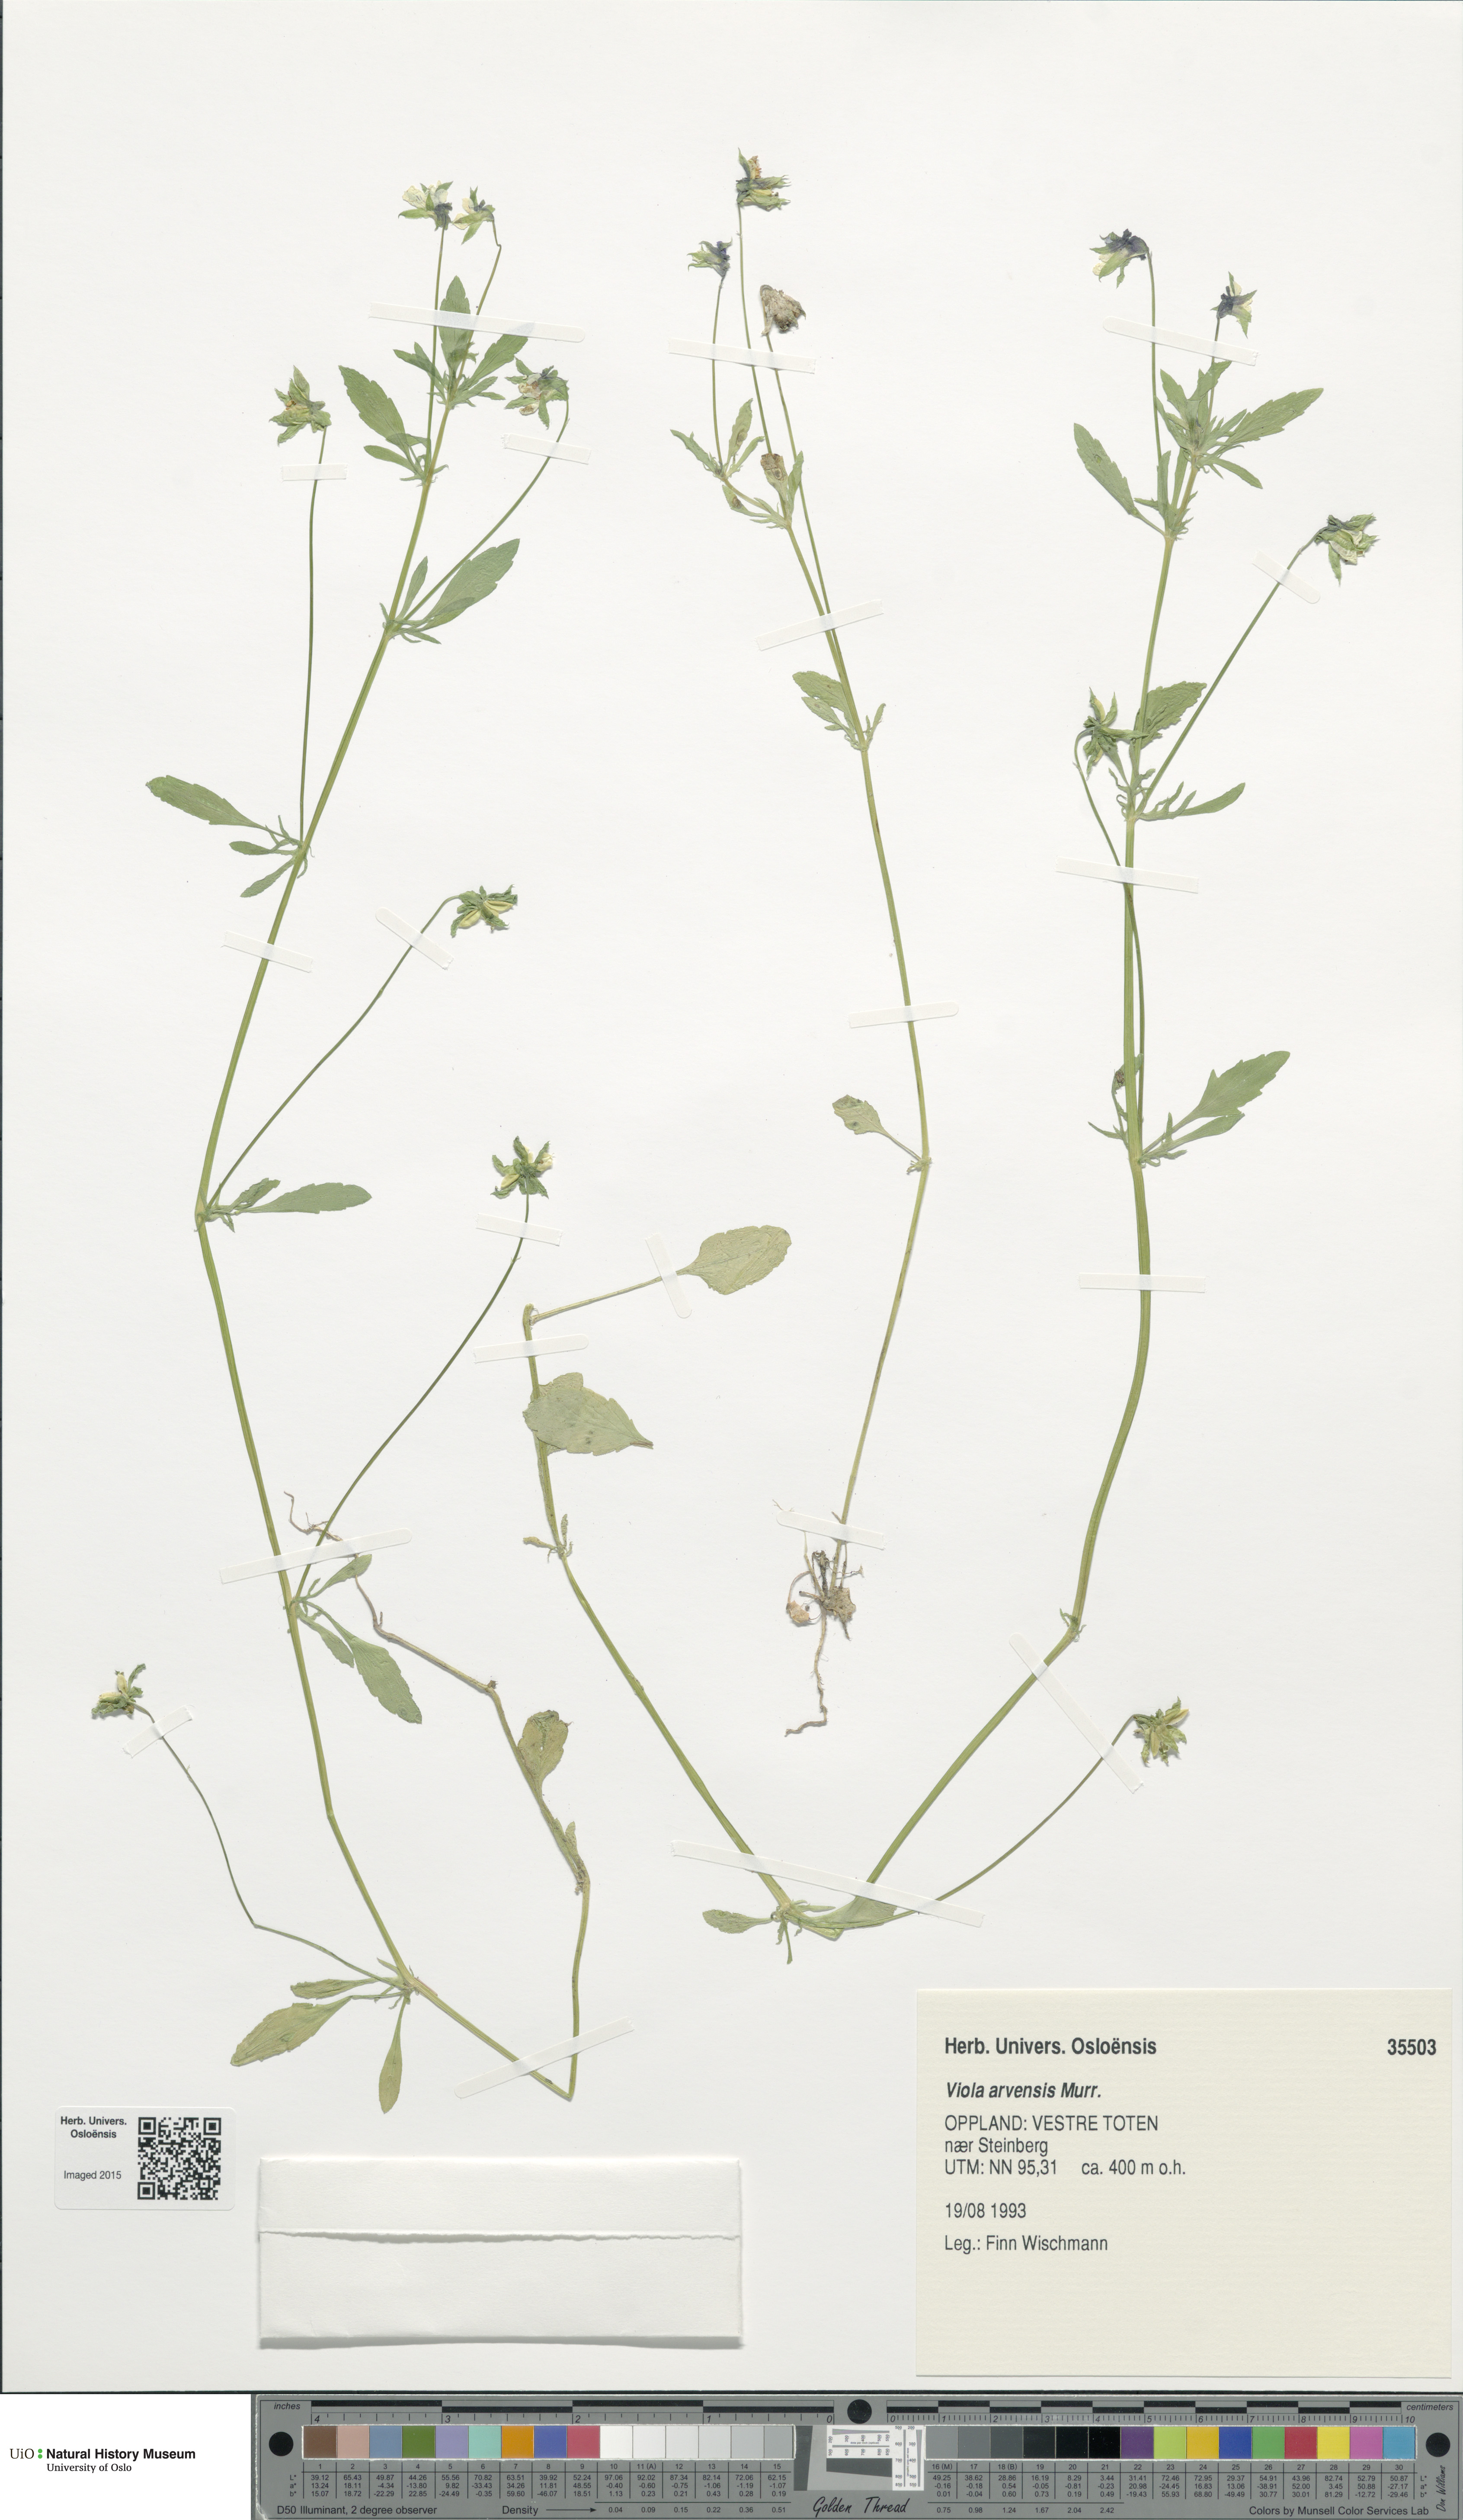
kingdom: Plantae
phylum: Tracheophyta
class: Magnoliopsida
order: Malpighiales
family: Violaceae
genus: Viola
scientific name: Viola arvensis
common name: Field pansy
